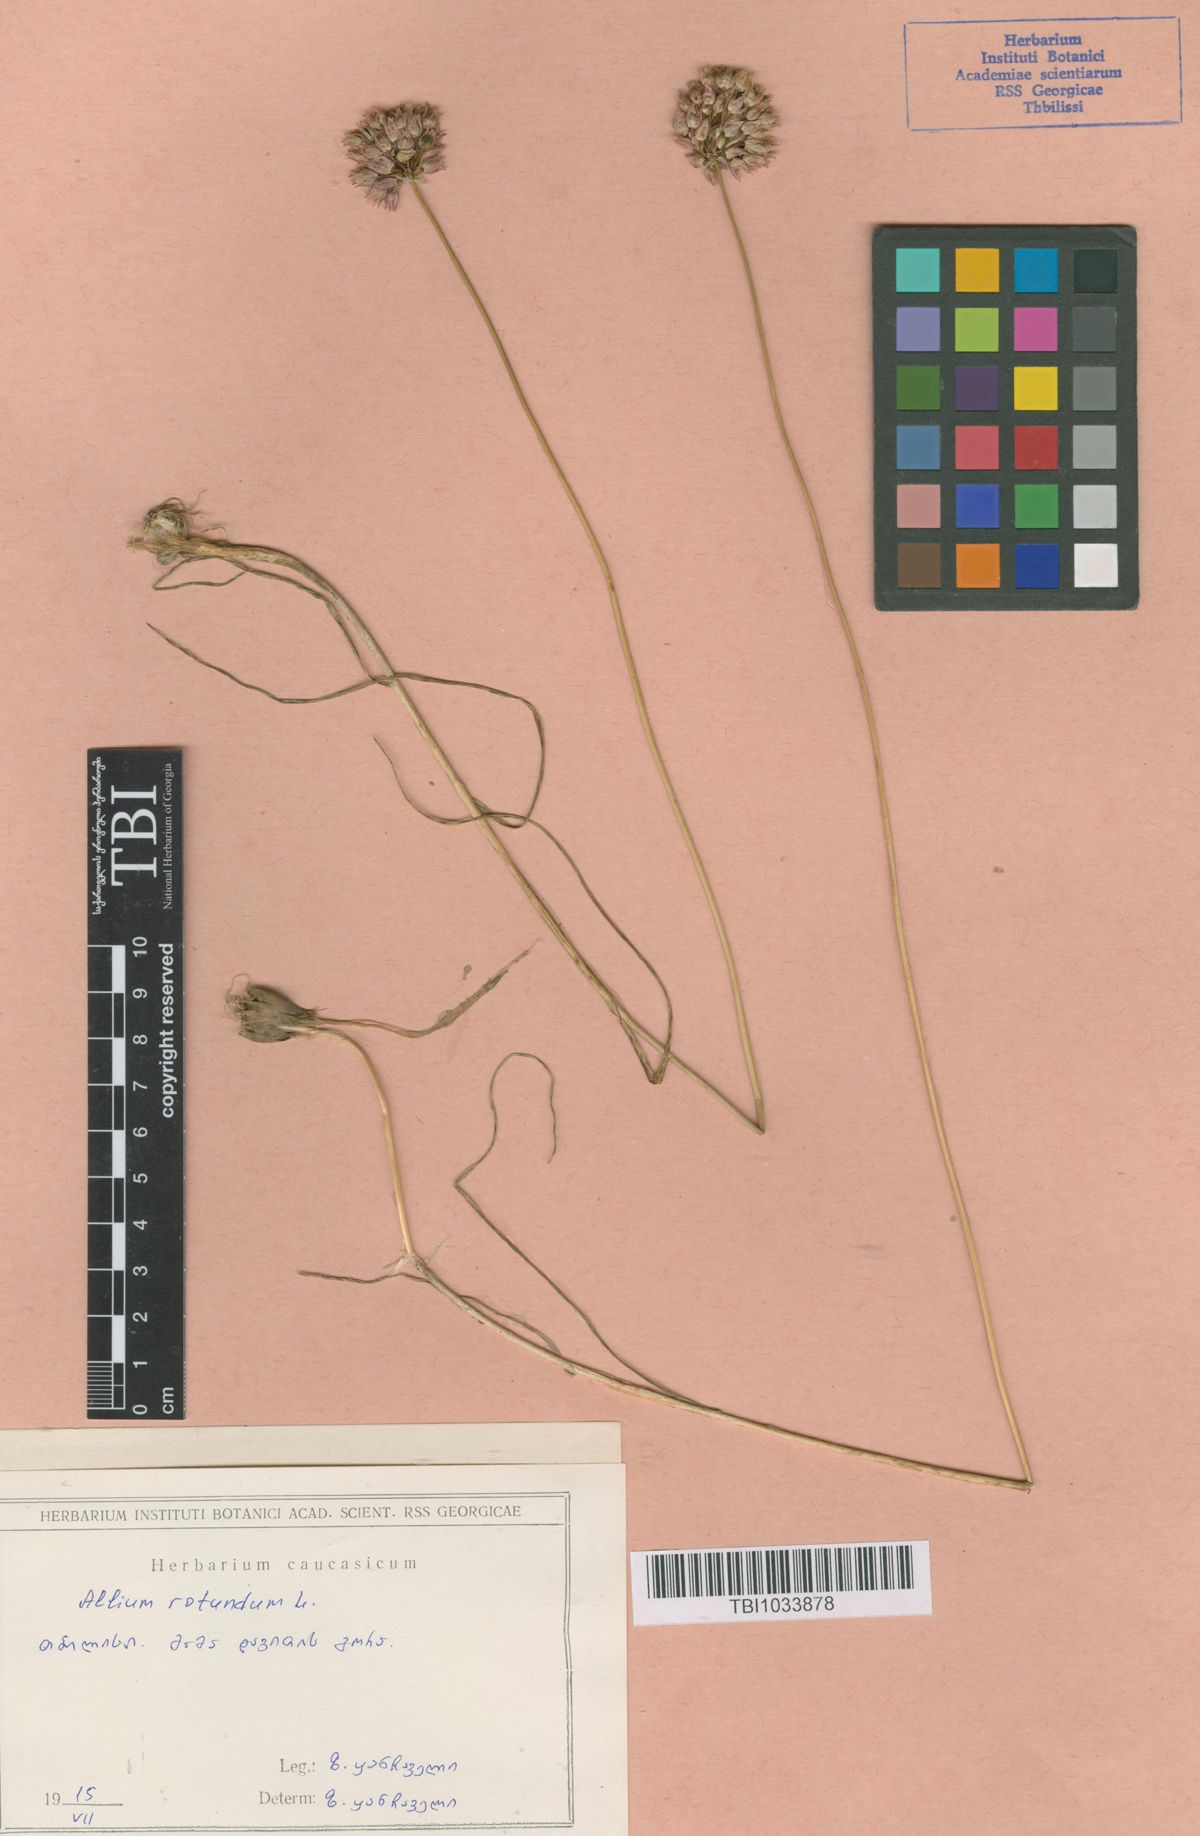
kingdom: Plantae
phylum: Tracheophyta
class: Liliopsida
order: Asparagales
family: Amaryllidaceae
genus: Allium
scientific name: Allium rotundum
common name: Sand leek
